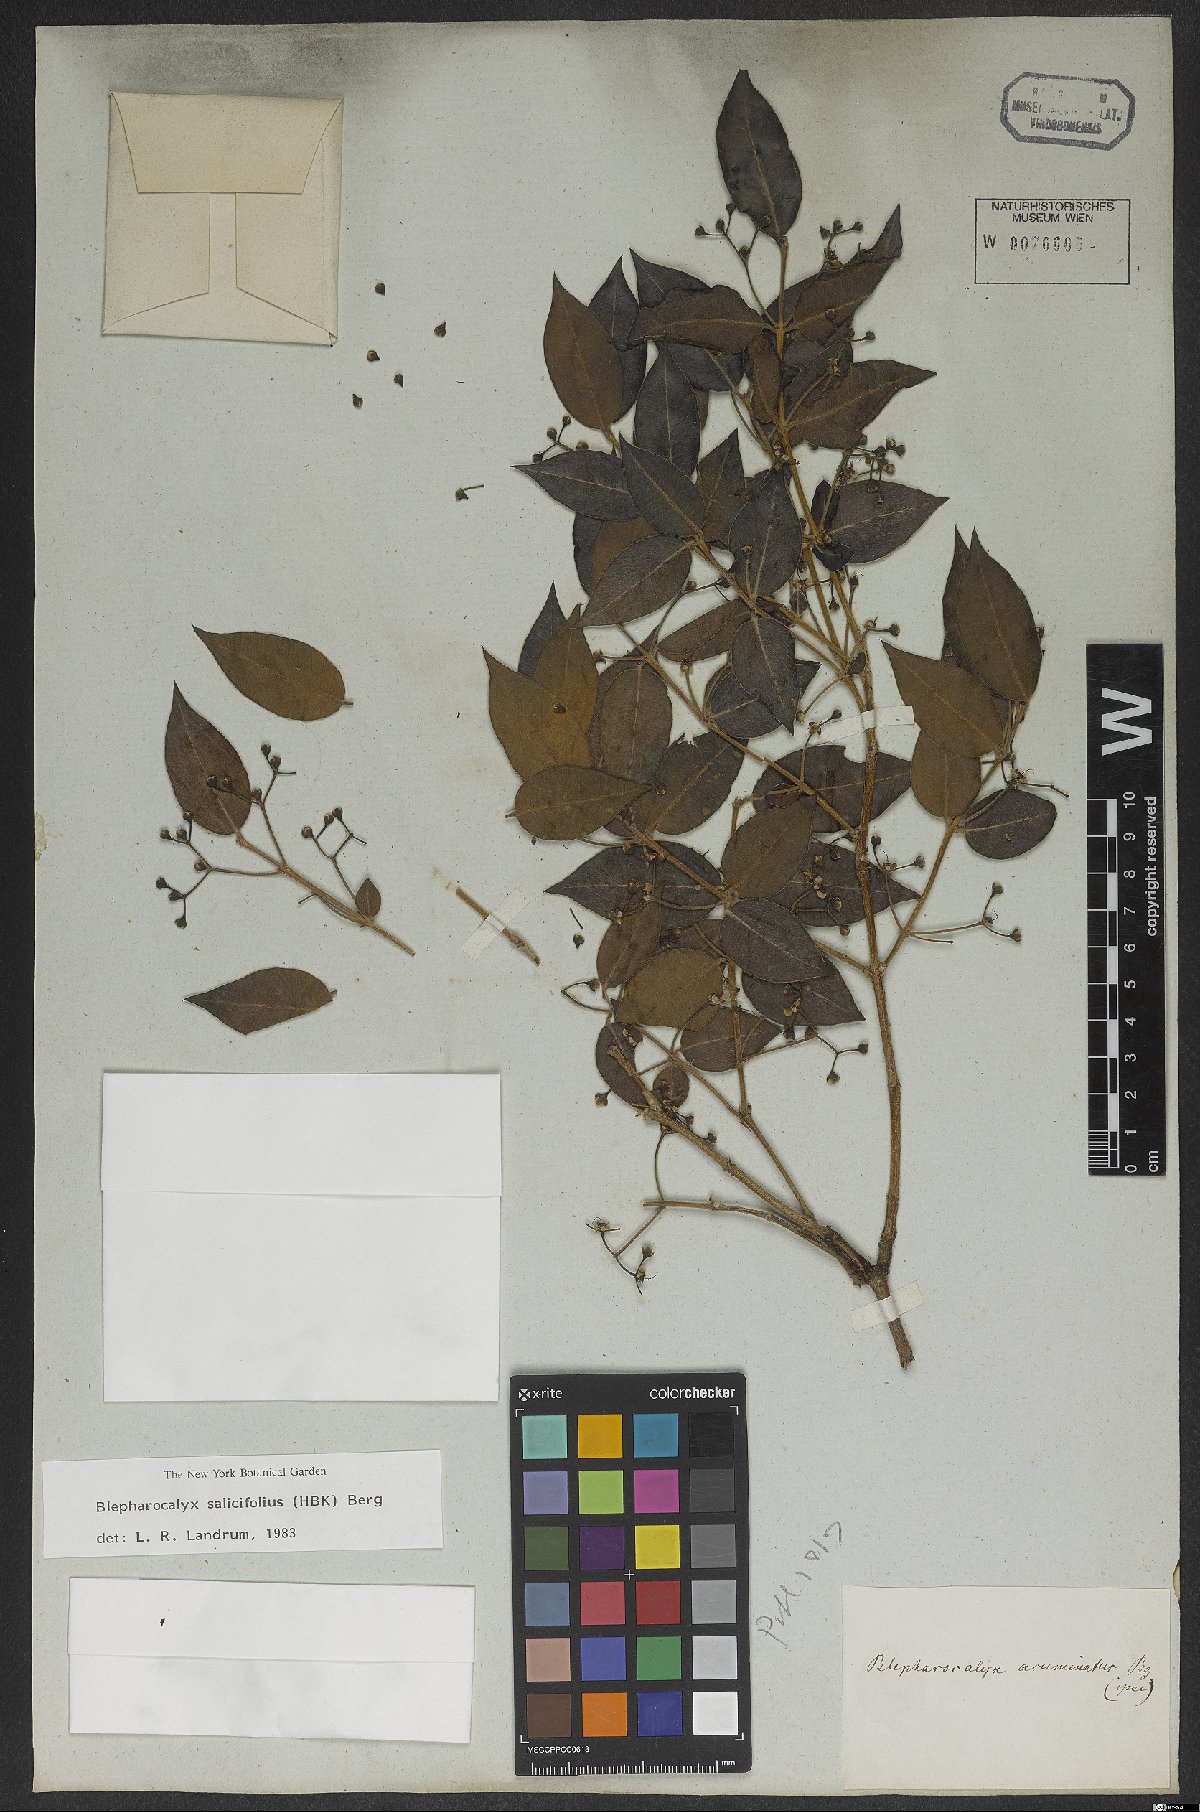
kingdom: Plantae
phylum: Tracheophyta
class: Magnoliopsida
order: Myrtales
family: Myrtaceae
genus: Blepharocalyx
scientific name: Blepharocalyx salicifolius
